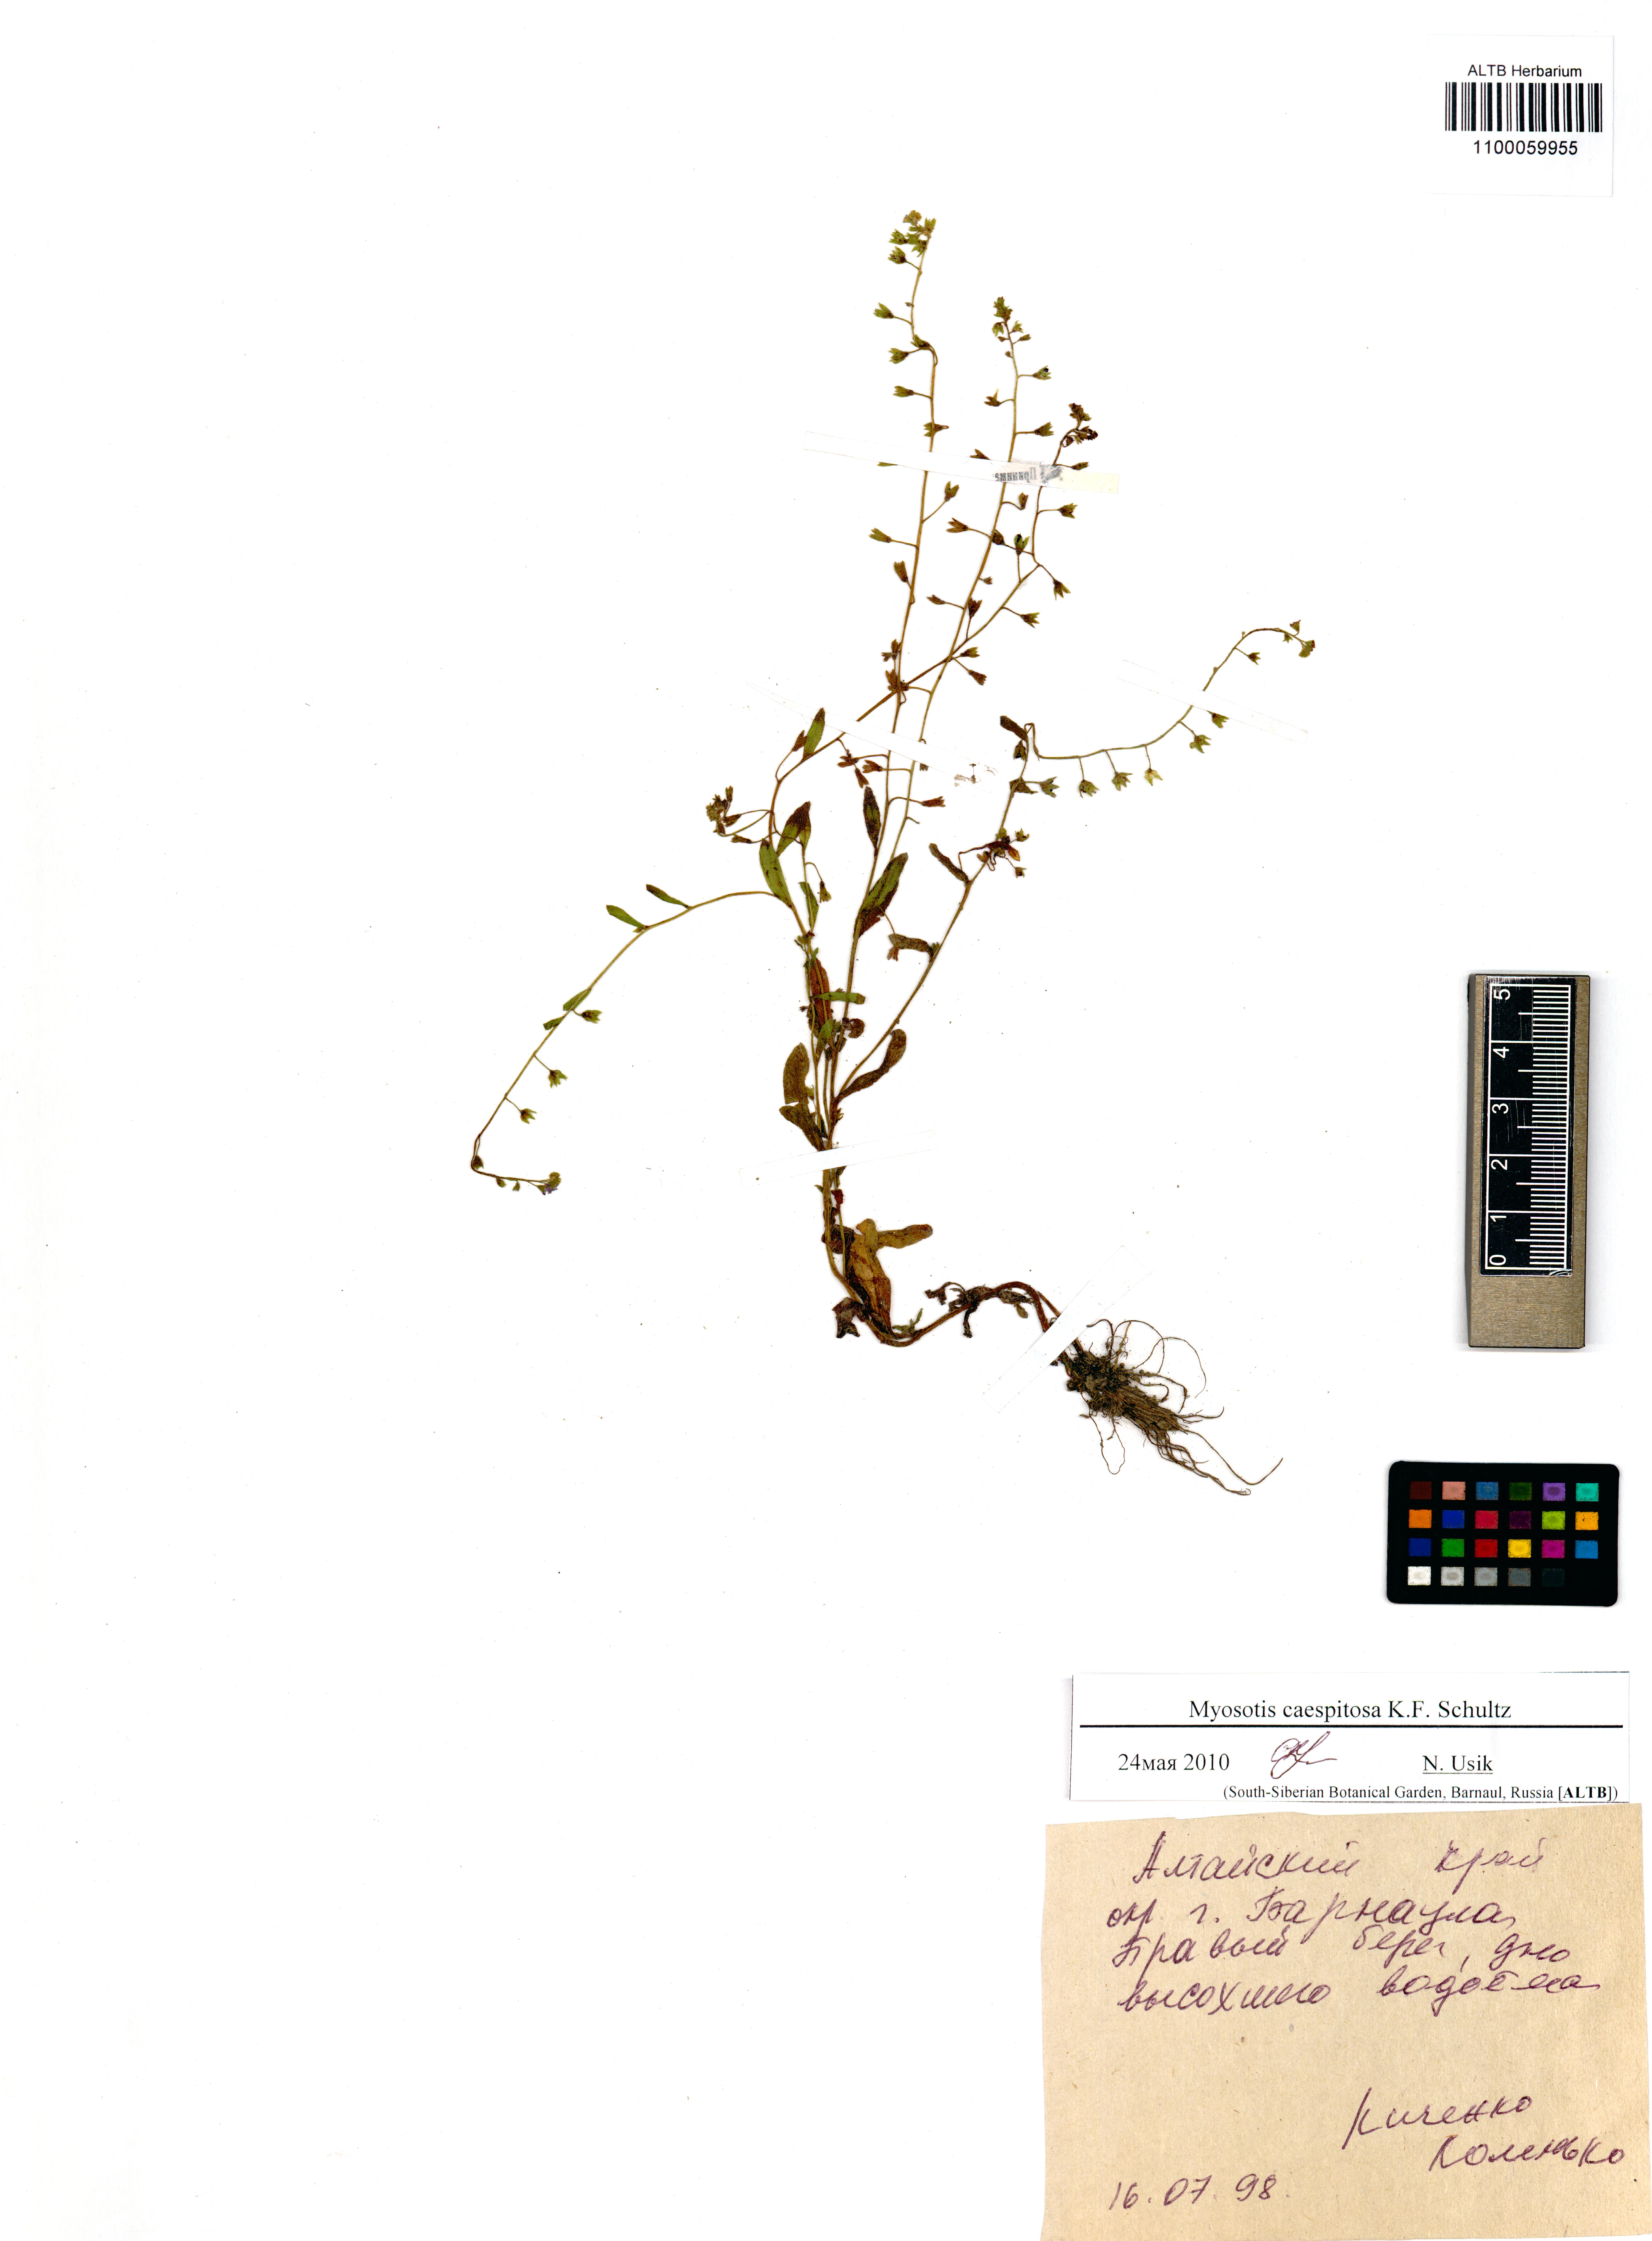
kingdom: Plantae
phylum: Tracheophyta
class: Magnoliopsida
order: Boraginales
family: Boraginaceae
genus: Myosotis
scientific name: Myosotis laxa
